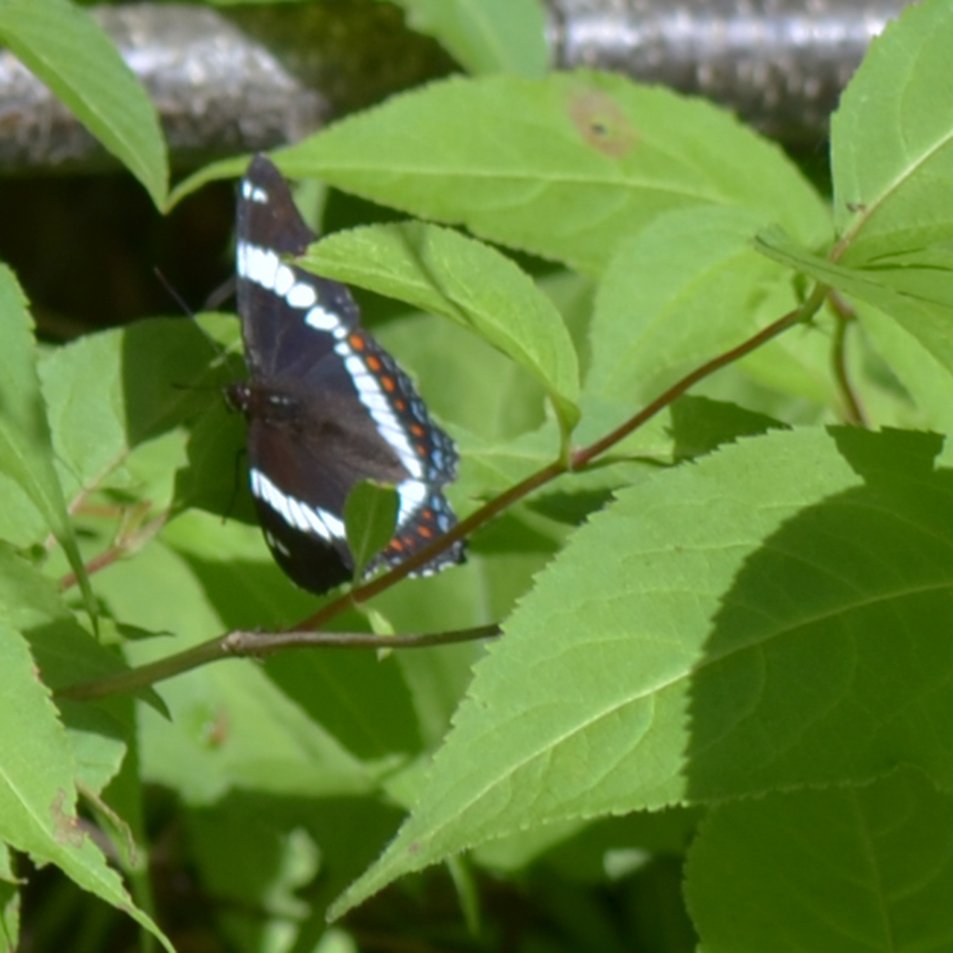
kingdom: Animalia
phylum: Arthropoda
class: Insecta
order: Lepidoptera
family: Nymphalidae
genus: Limenitis
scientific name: Limenitis arthemis
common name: Red-spotted Admiral
